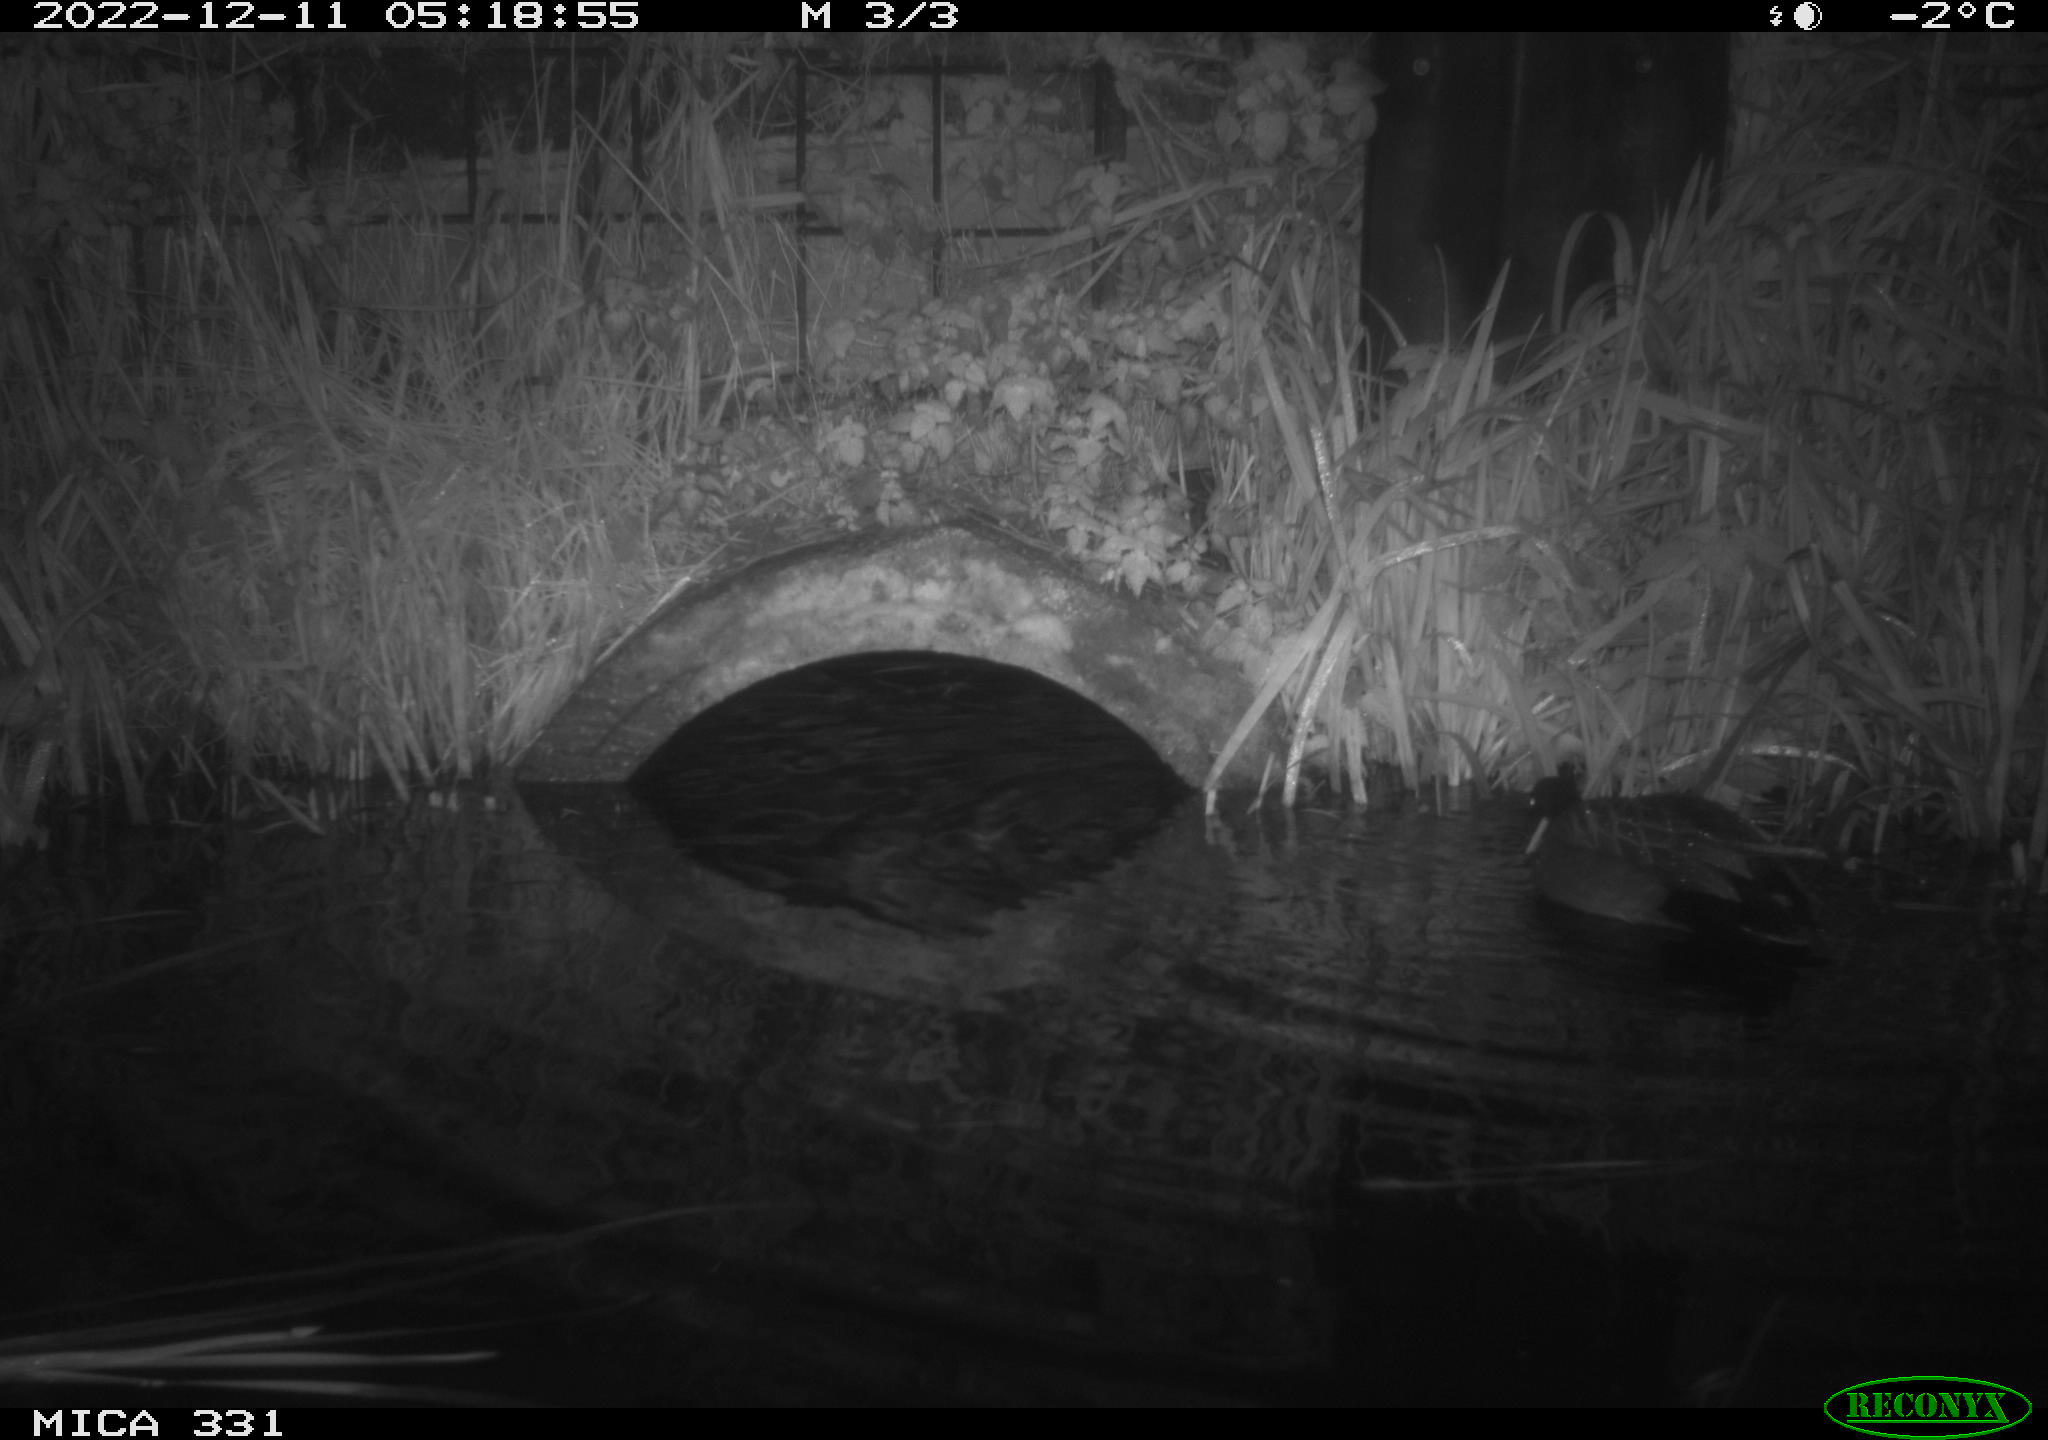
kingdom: Animalia
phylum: Chordata
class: Aves
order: Anseriformes
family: Anatidae
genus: Anas
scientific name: Anas
